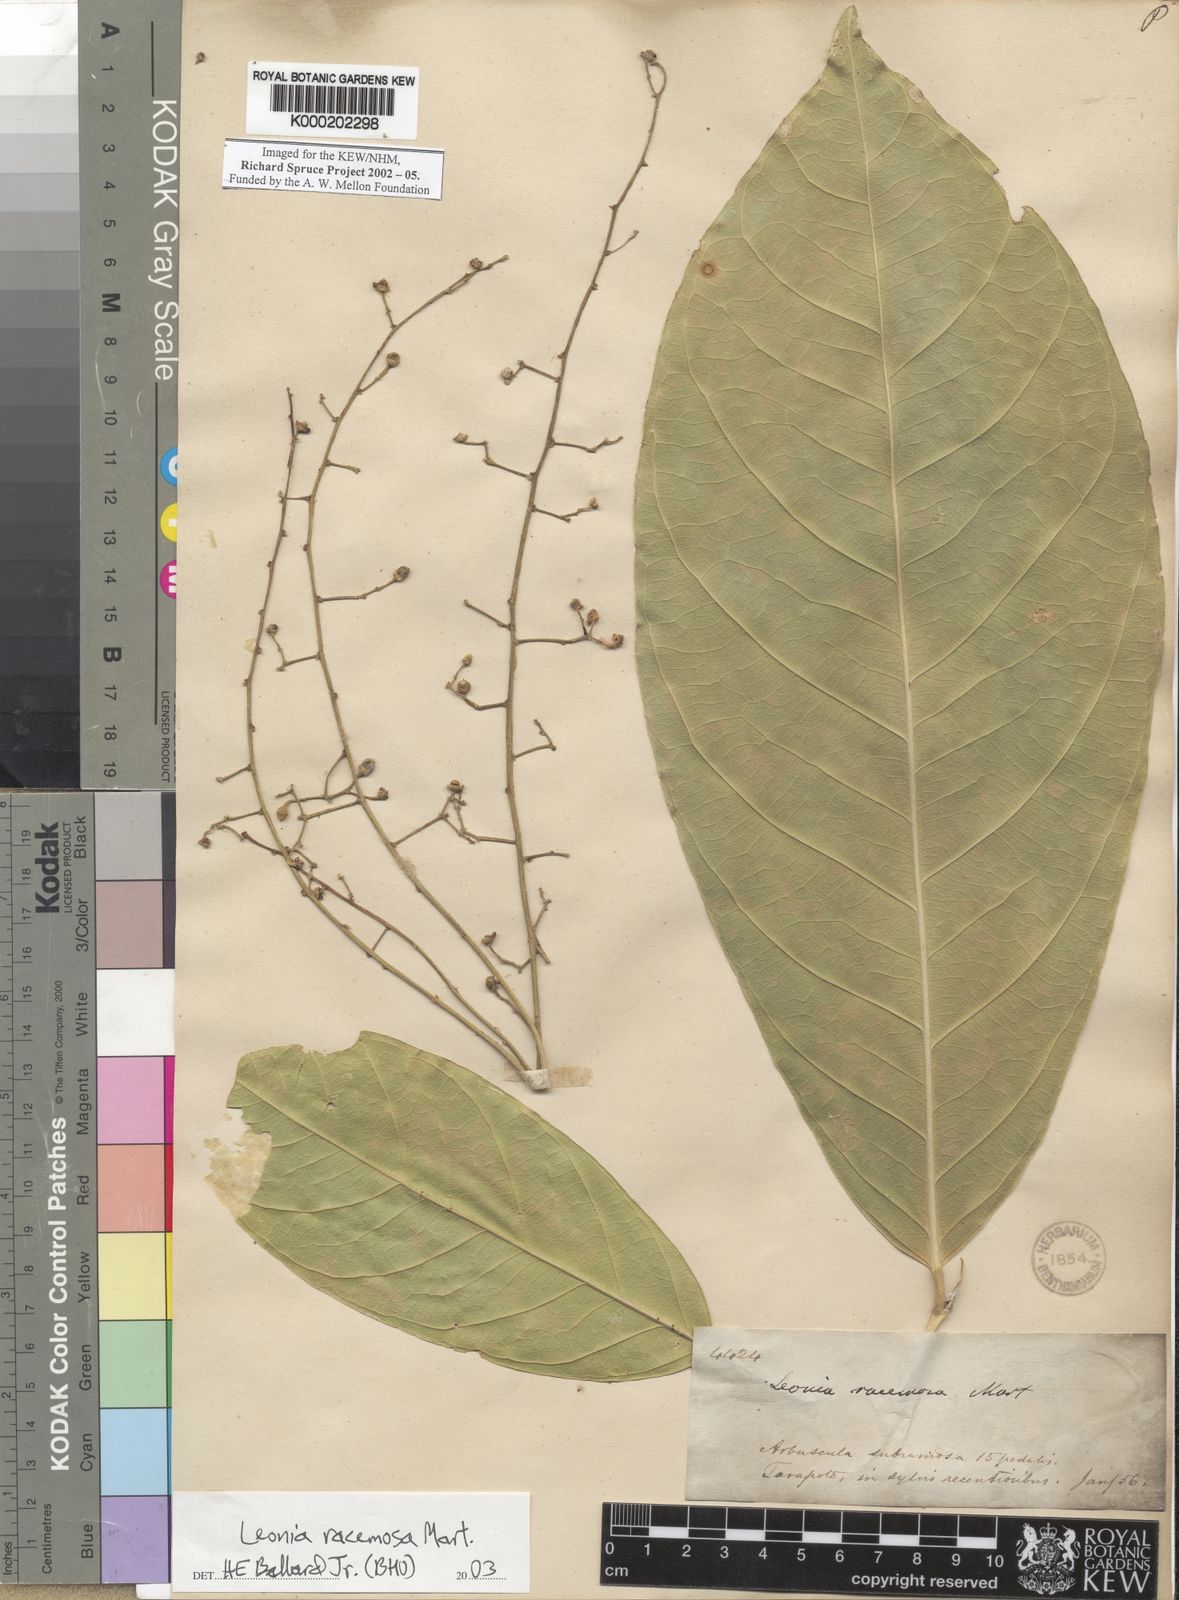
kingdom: Plantae
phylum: Tracheophyta
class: Magnoliopsida
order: Malpighiales
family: Violaceae
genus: Leonia
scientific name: Leonia
